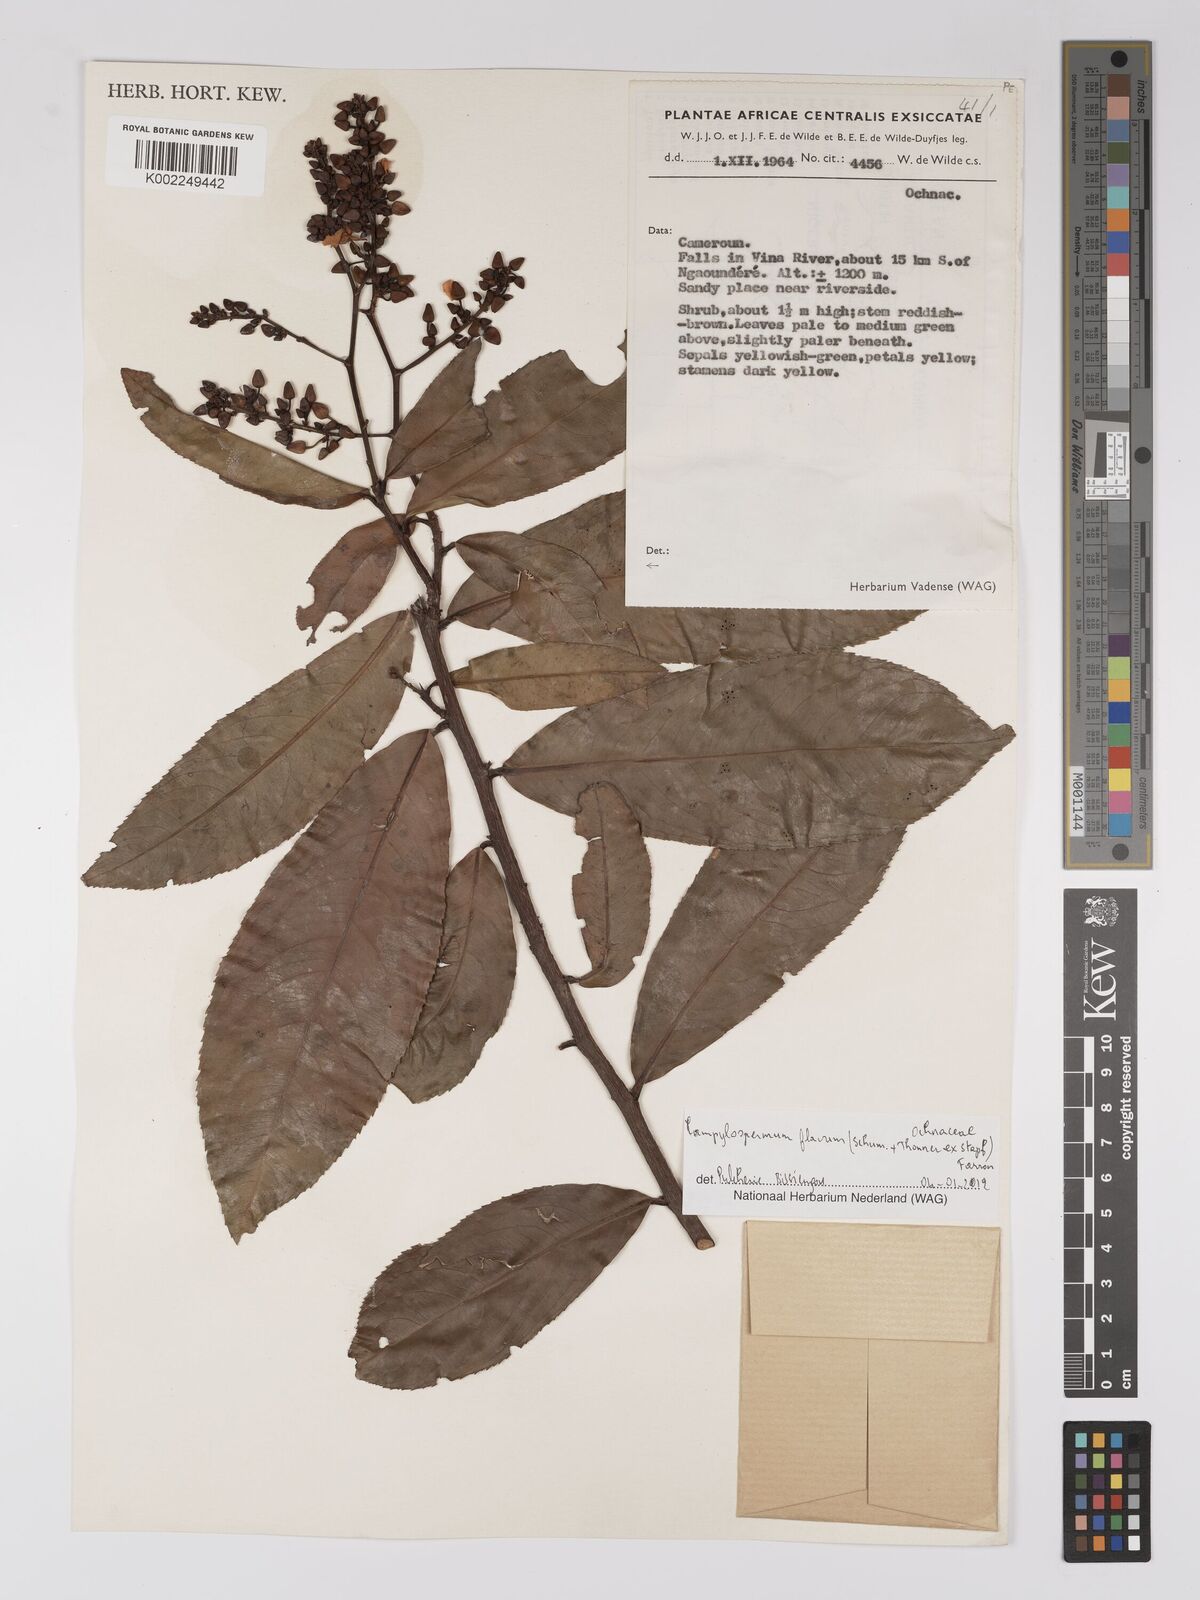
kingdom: Plantae
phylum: Tracheophyta
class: Magnoliopsida
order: Malpighiales
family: Ochnaceae
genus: Campylospermum
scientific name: Campylospermum flavum
